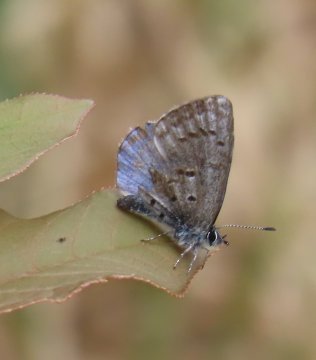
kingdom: Animalia
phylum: Arthropoda
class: Insecta
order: Lepidoptera
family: Lycaenidae
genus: Celastrina
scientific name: Celastrina lucia
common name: Northern Spring Azure
